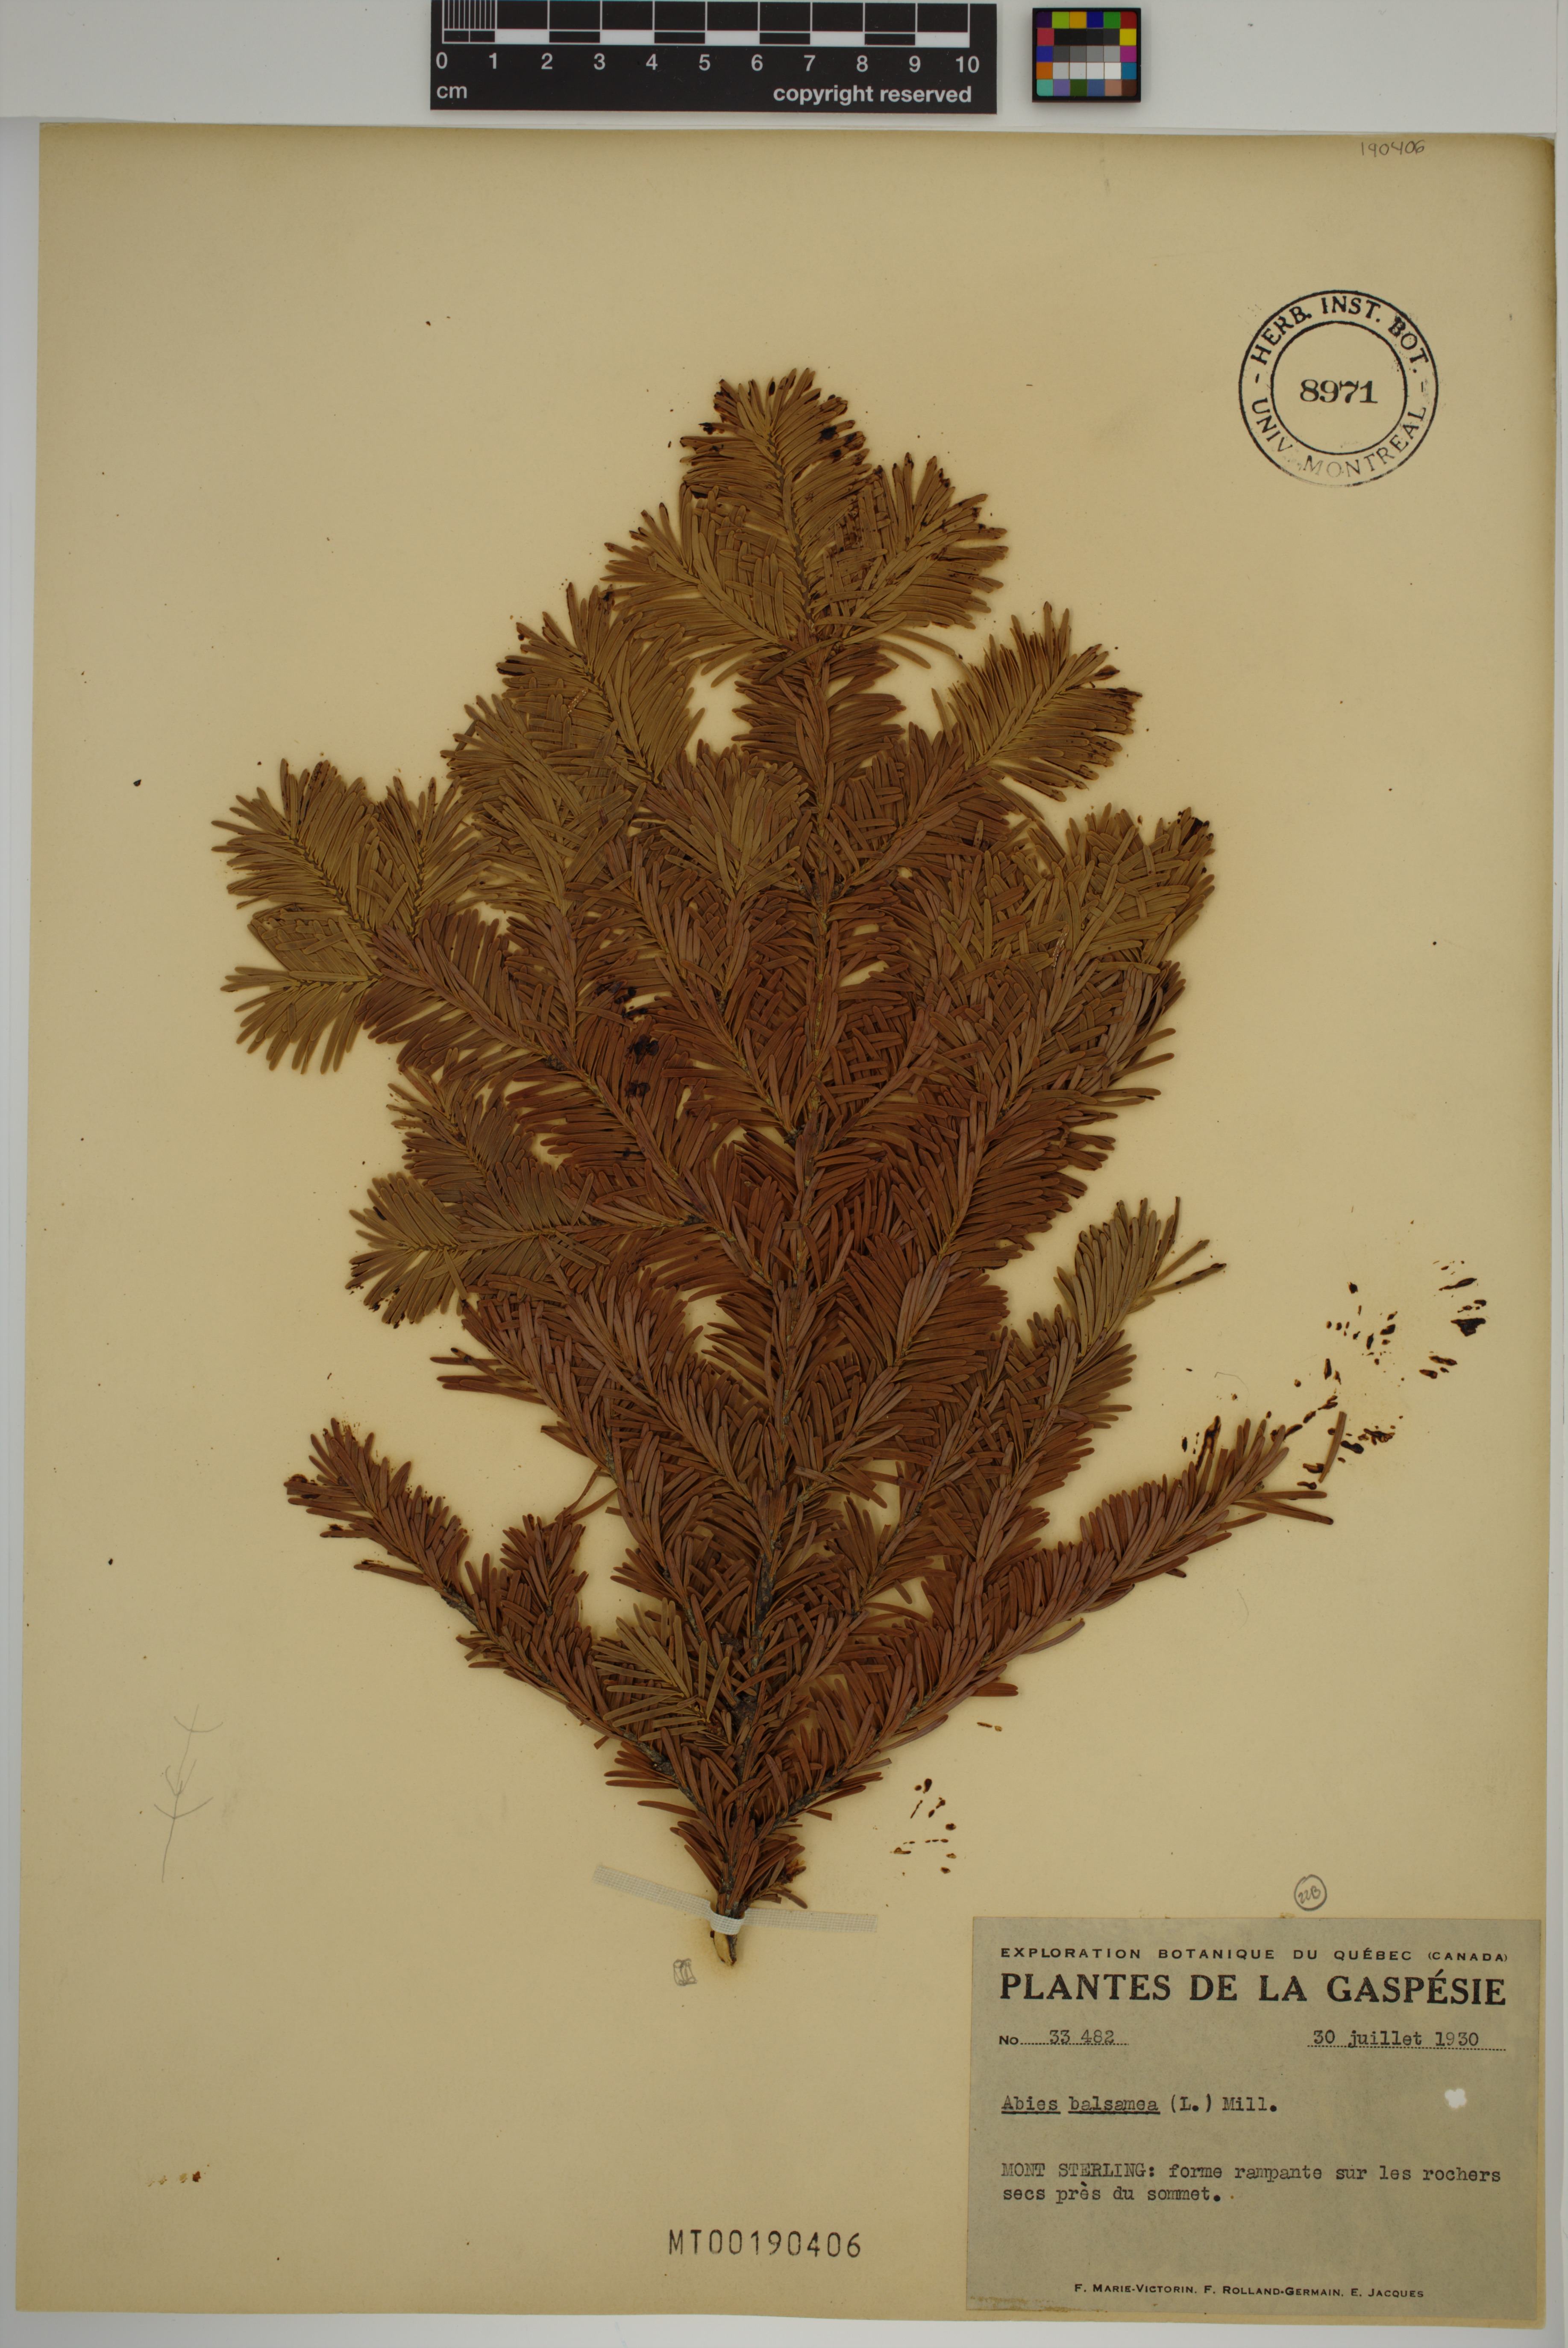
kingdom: Plantae
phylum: Tracheophyta
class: Pinopsida
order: Pinales
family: Pinaceae
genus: Abies
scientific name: Abies balsamea
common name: Balsam fir
